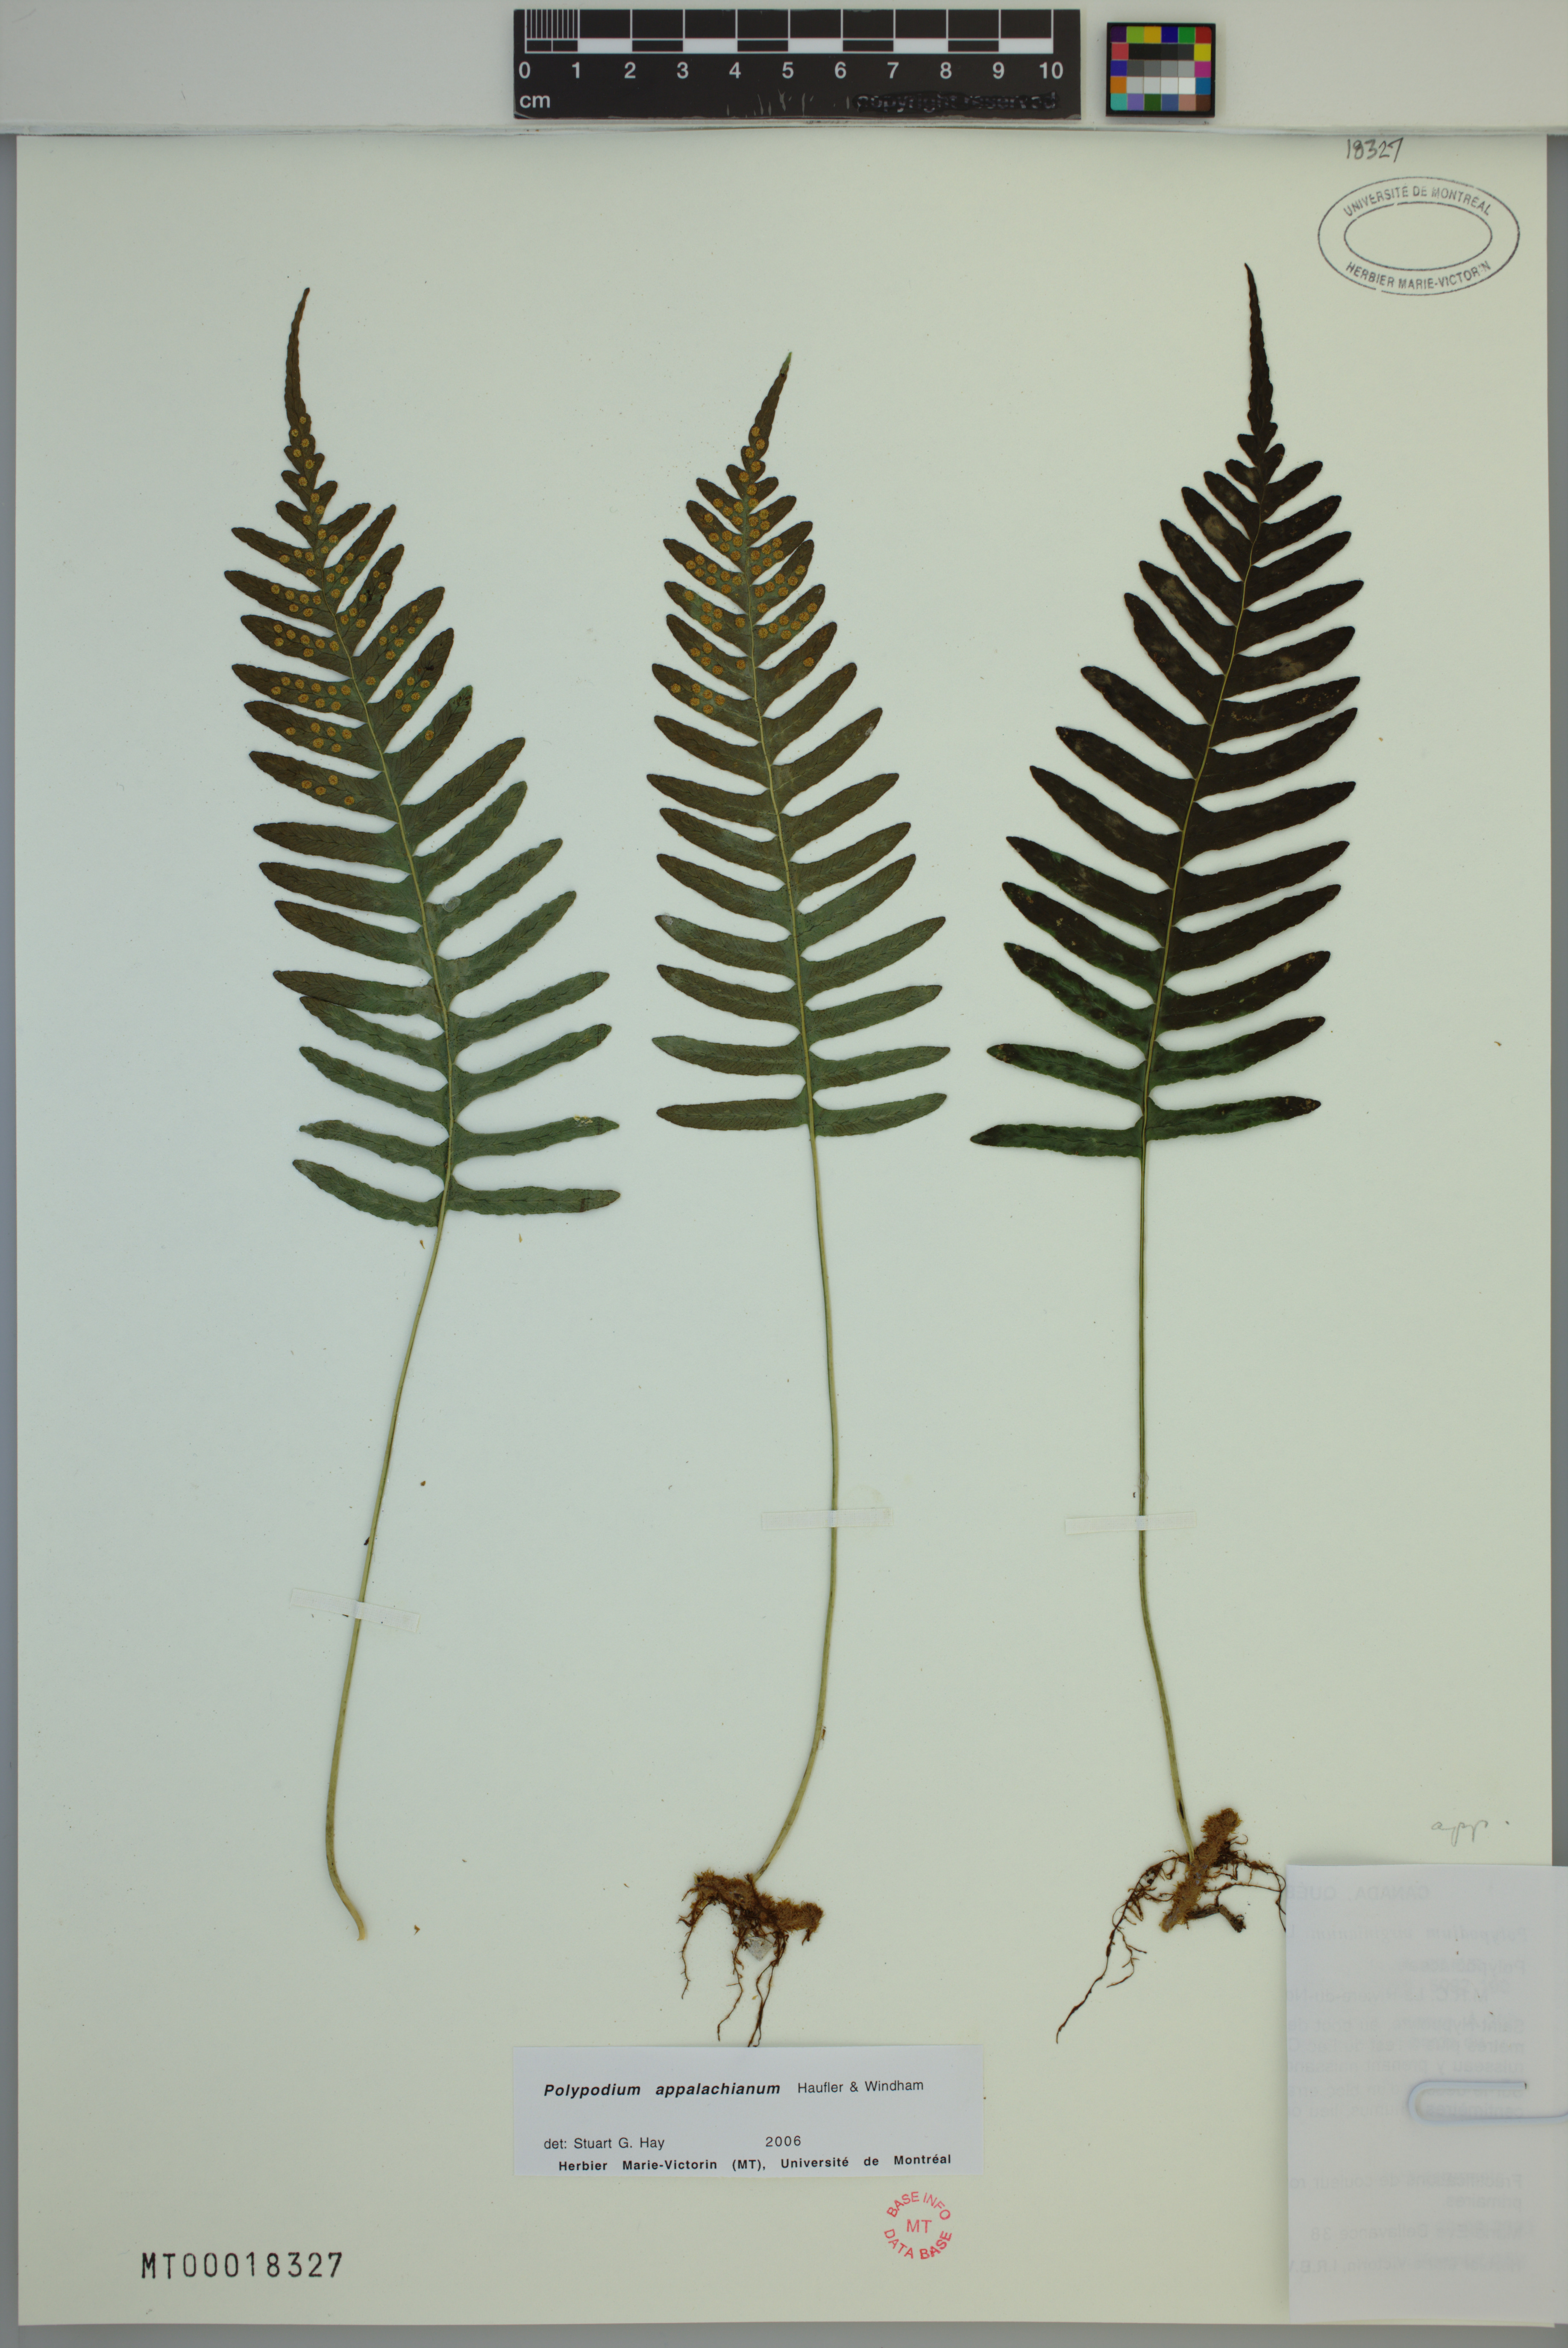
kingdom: Plantae
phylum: Tracheophyta
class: Polypodiopsida
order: Polypodiales
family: Polypodiaceae
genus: Polypodium
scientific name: Polypodium appalachianum
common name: Appalachian polypody
